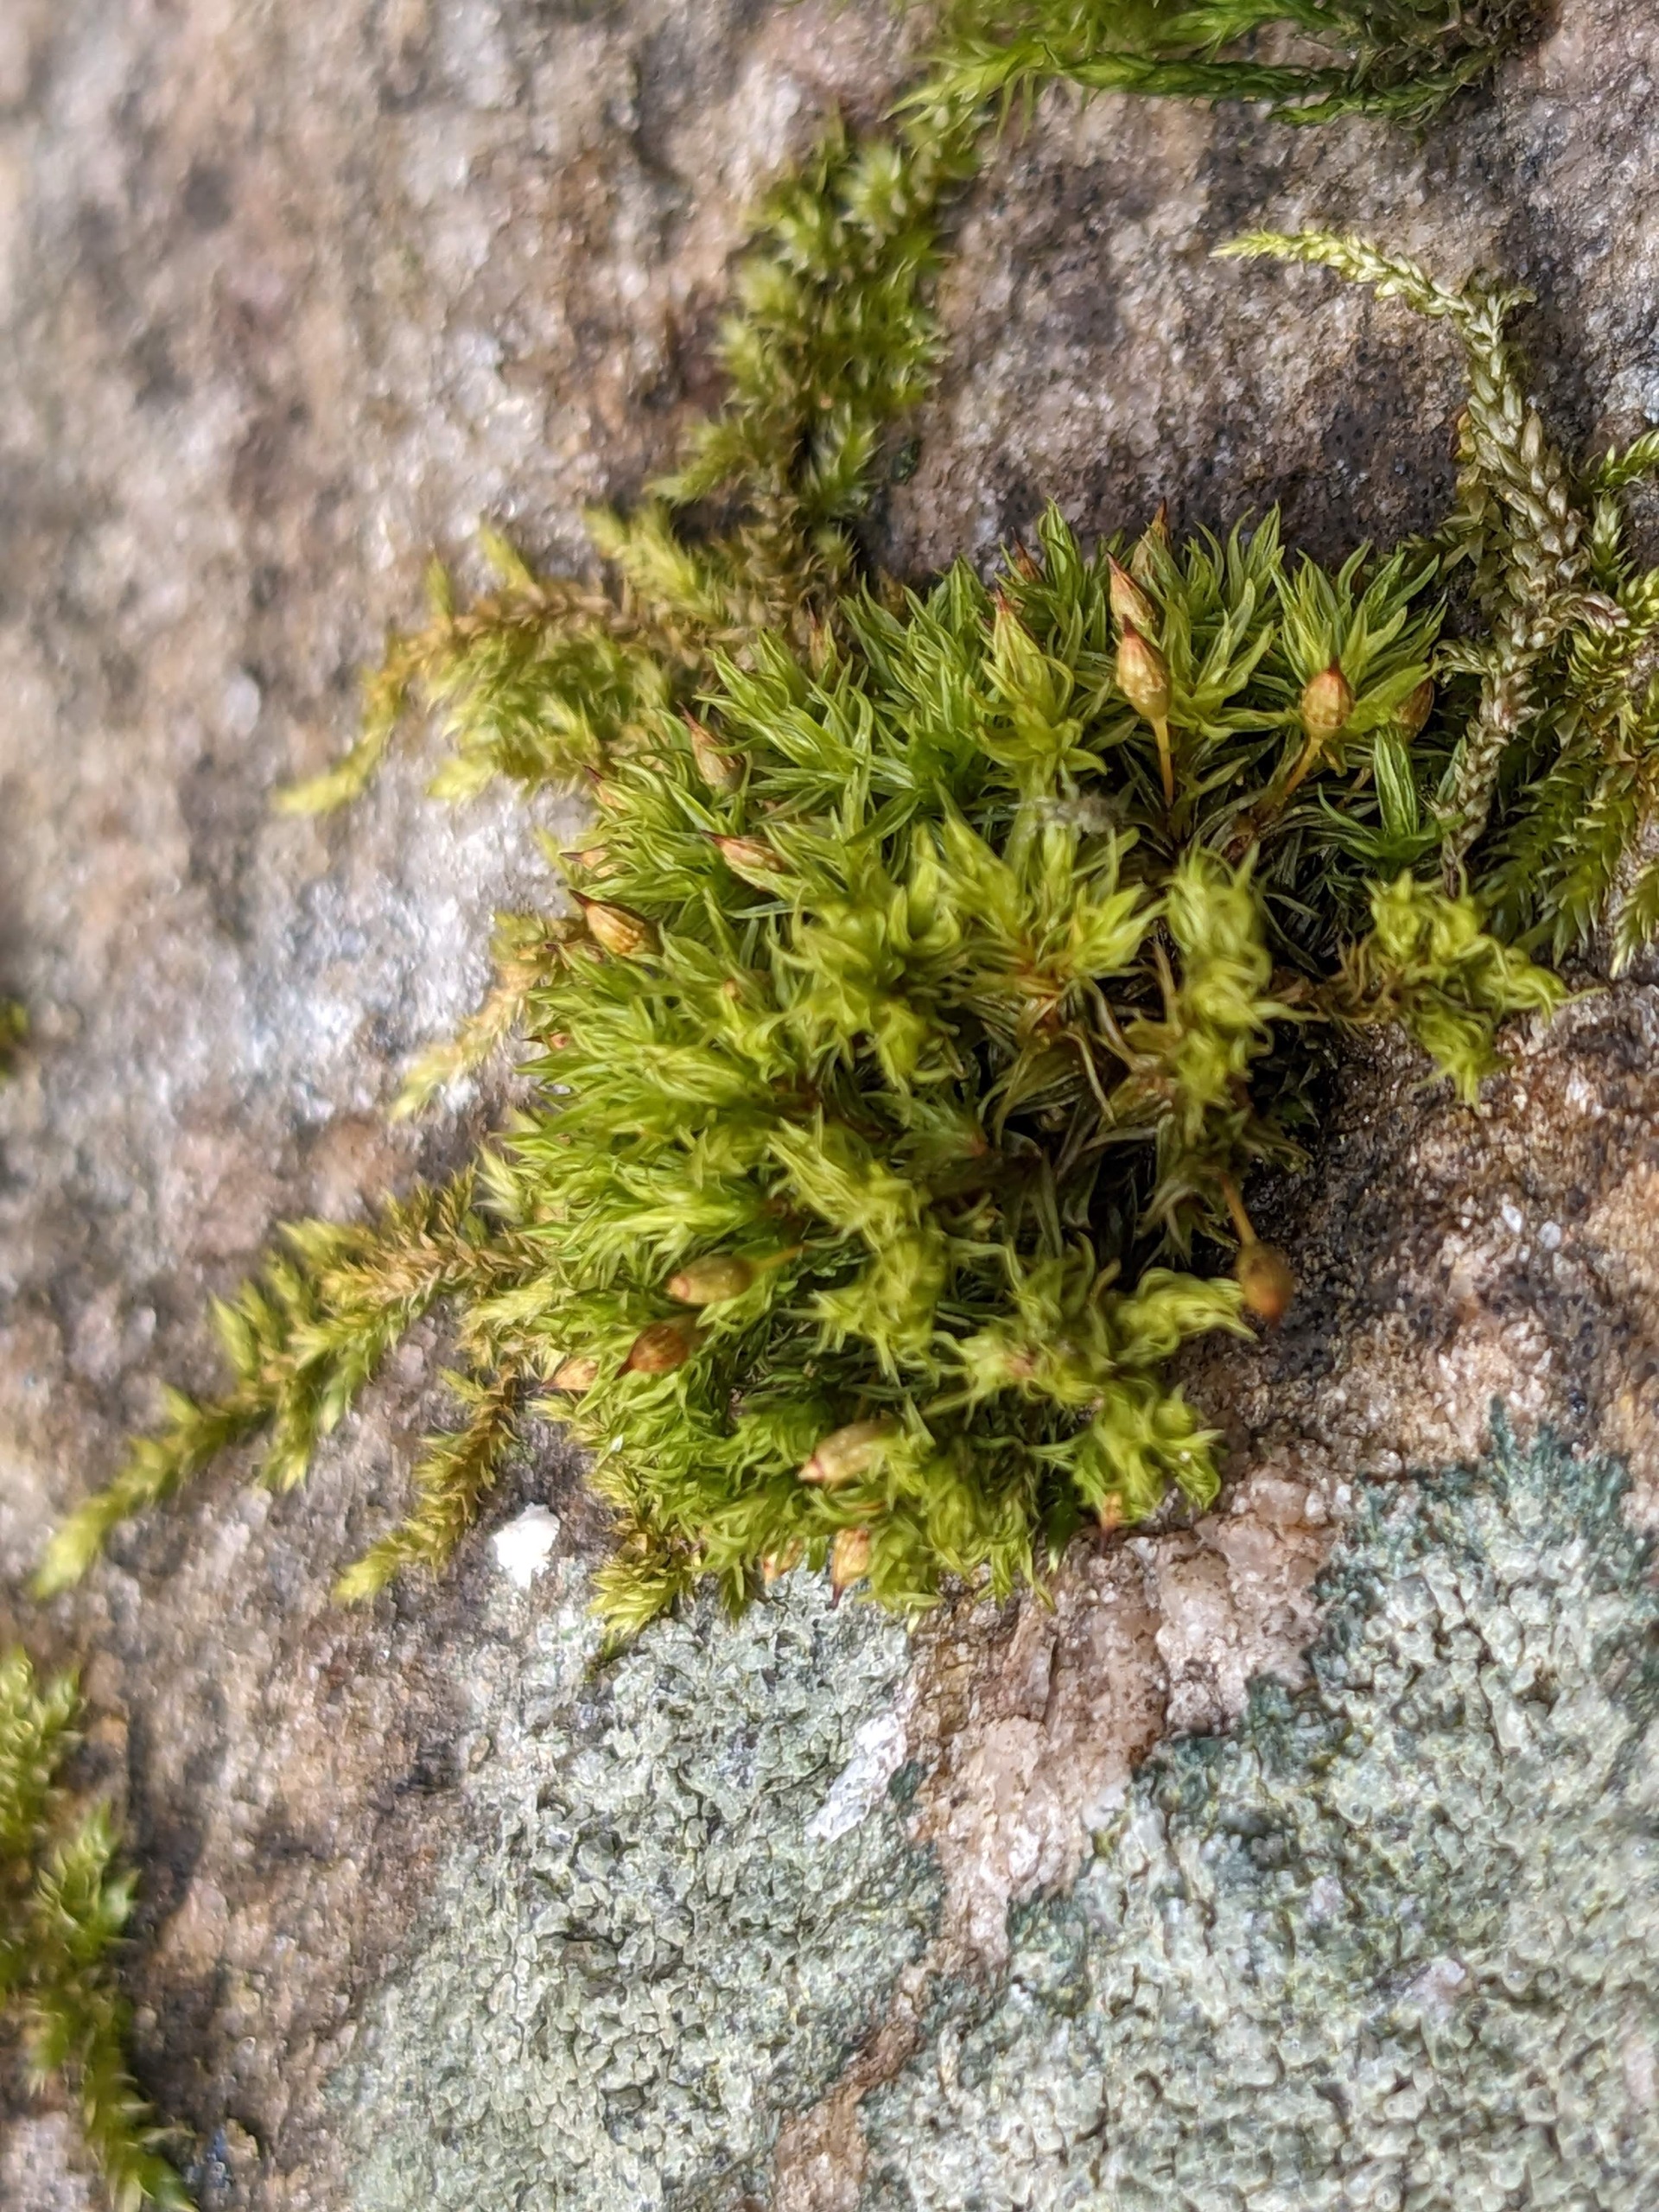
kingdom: Plantae
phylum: Bryophyta
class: Bryopsida
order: Orthotrichales
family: Orthotrichaceae
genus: Orthotrichum
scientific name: Orthotrichum pulchellum
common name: Smuk furehætte
